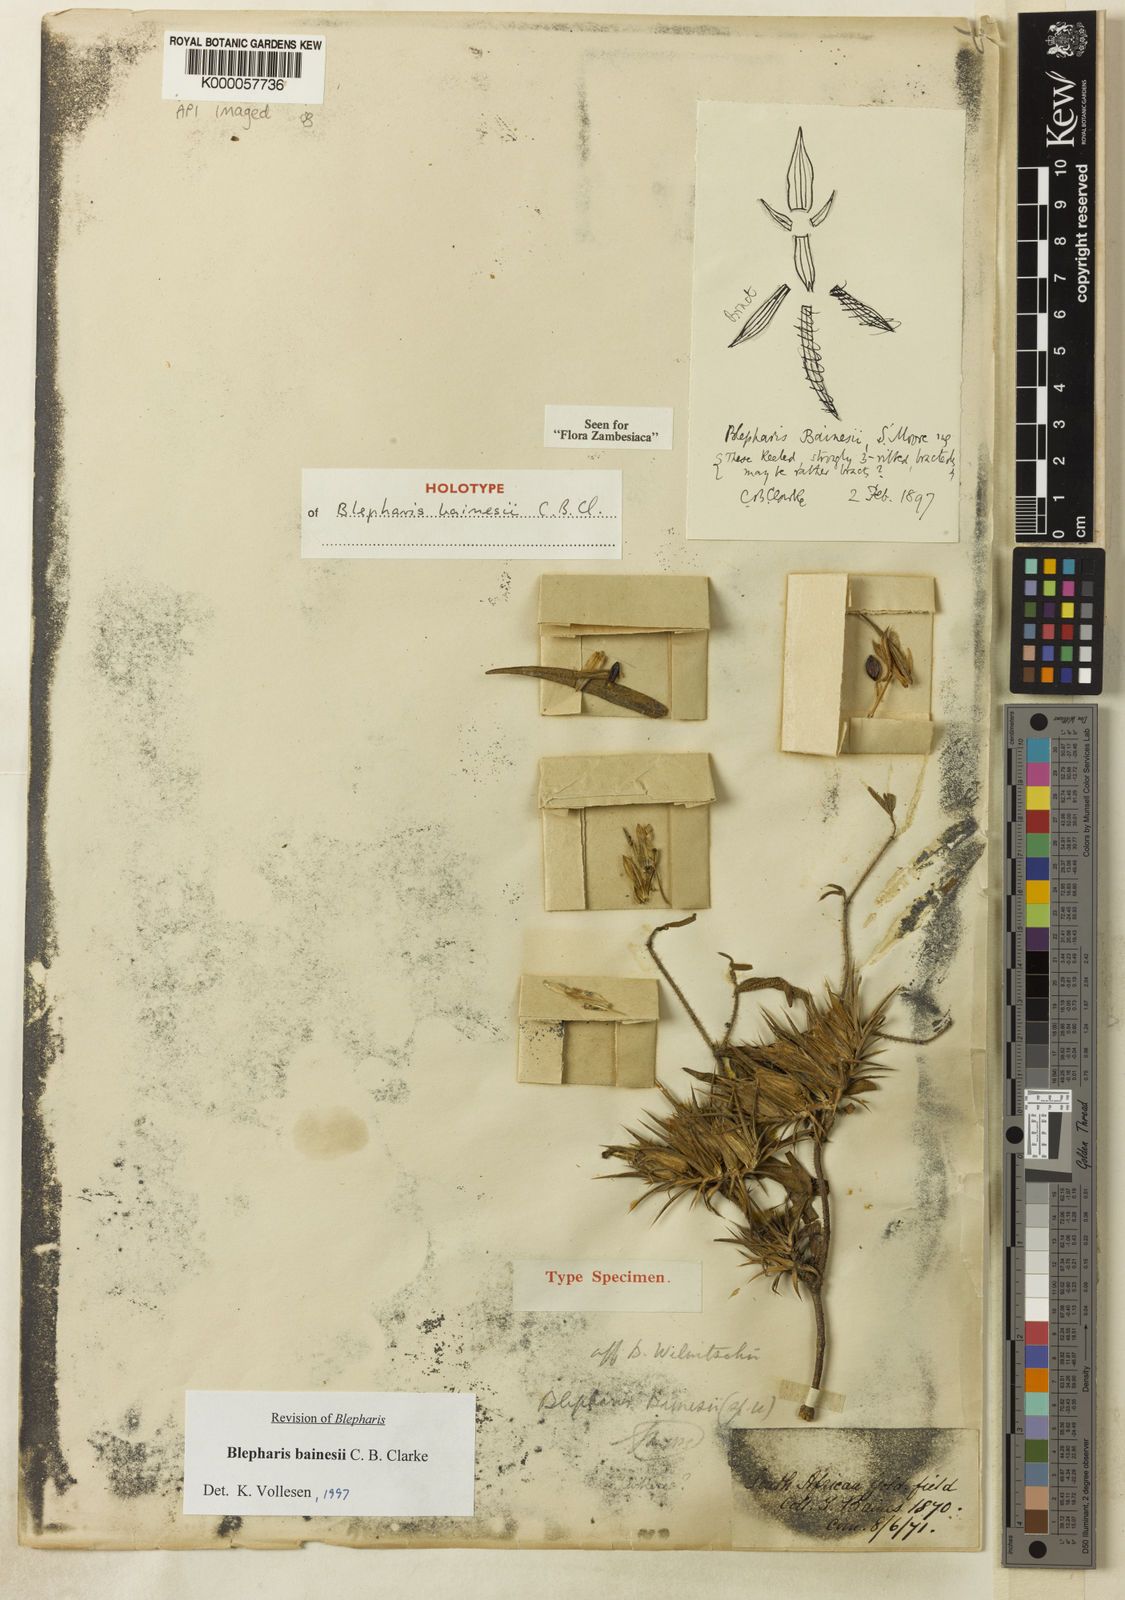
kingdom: Plantae
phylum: Tracheophyta
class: Magnoliopsida
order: Lamiales
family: Acanthaceae
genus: Blepharis
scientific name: Blepharis bainesii
